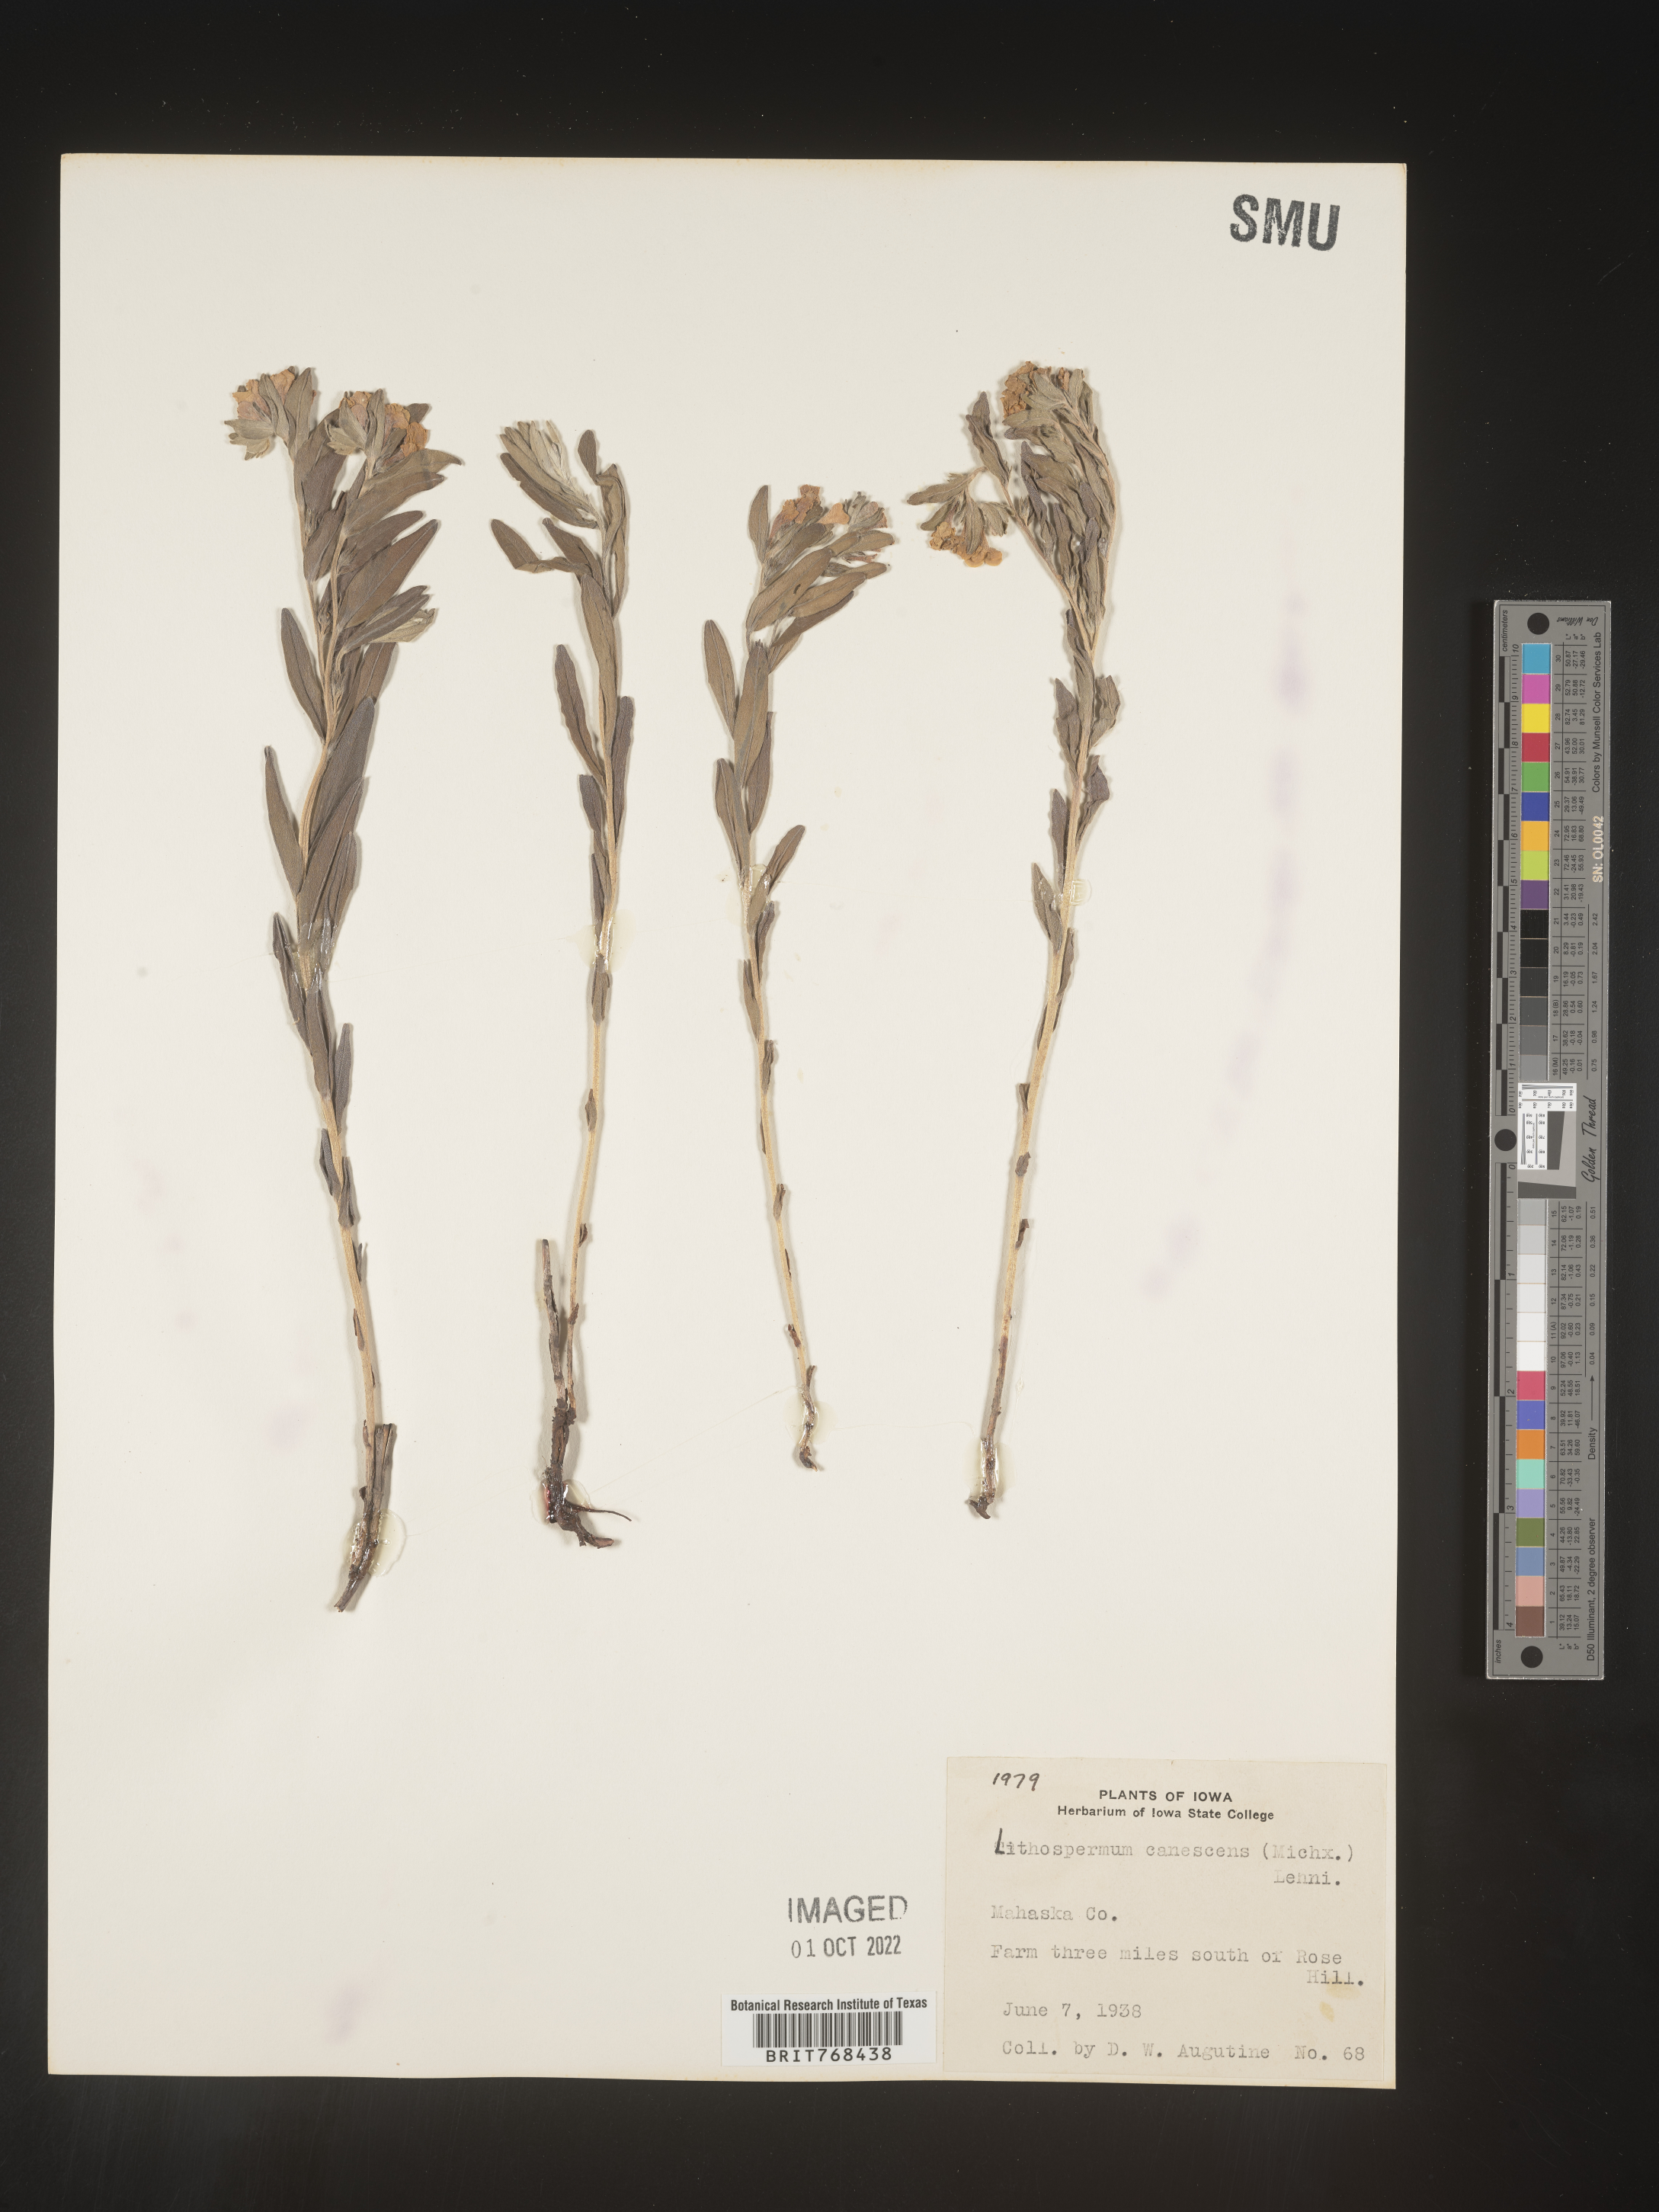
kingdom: Plantae
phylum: Tracheophyta
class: Magnoliopsida
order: Boraginales
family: Boraginaceae
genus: Lithospermum
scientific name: Lithospermum canescens
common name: Hoary puccoon
